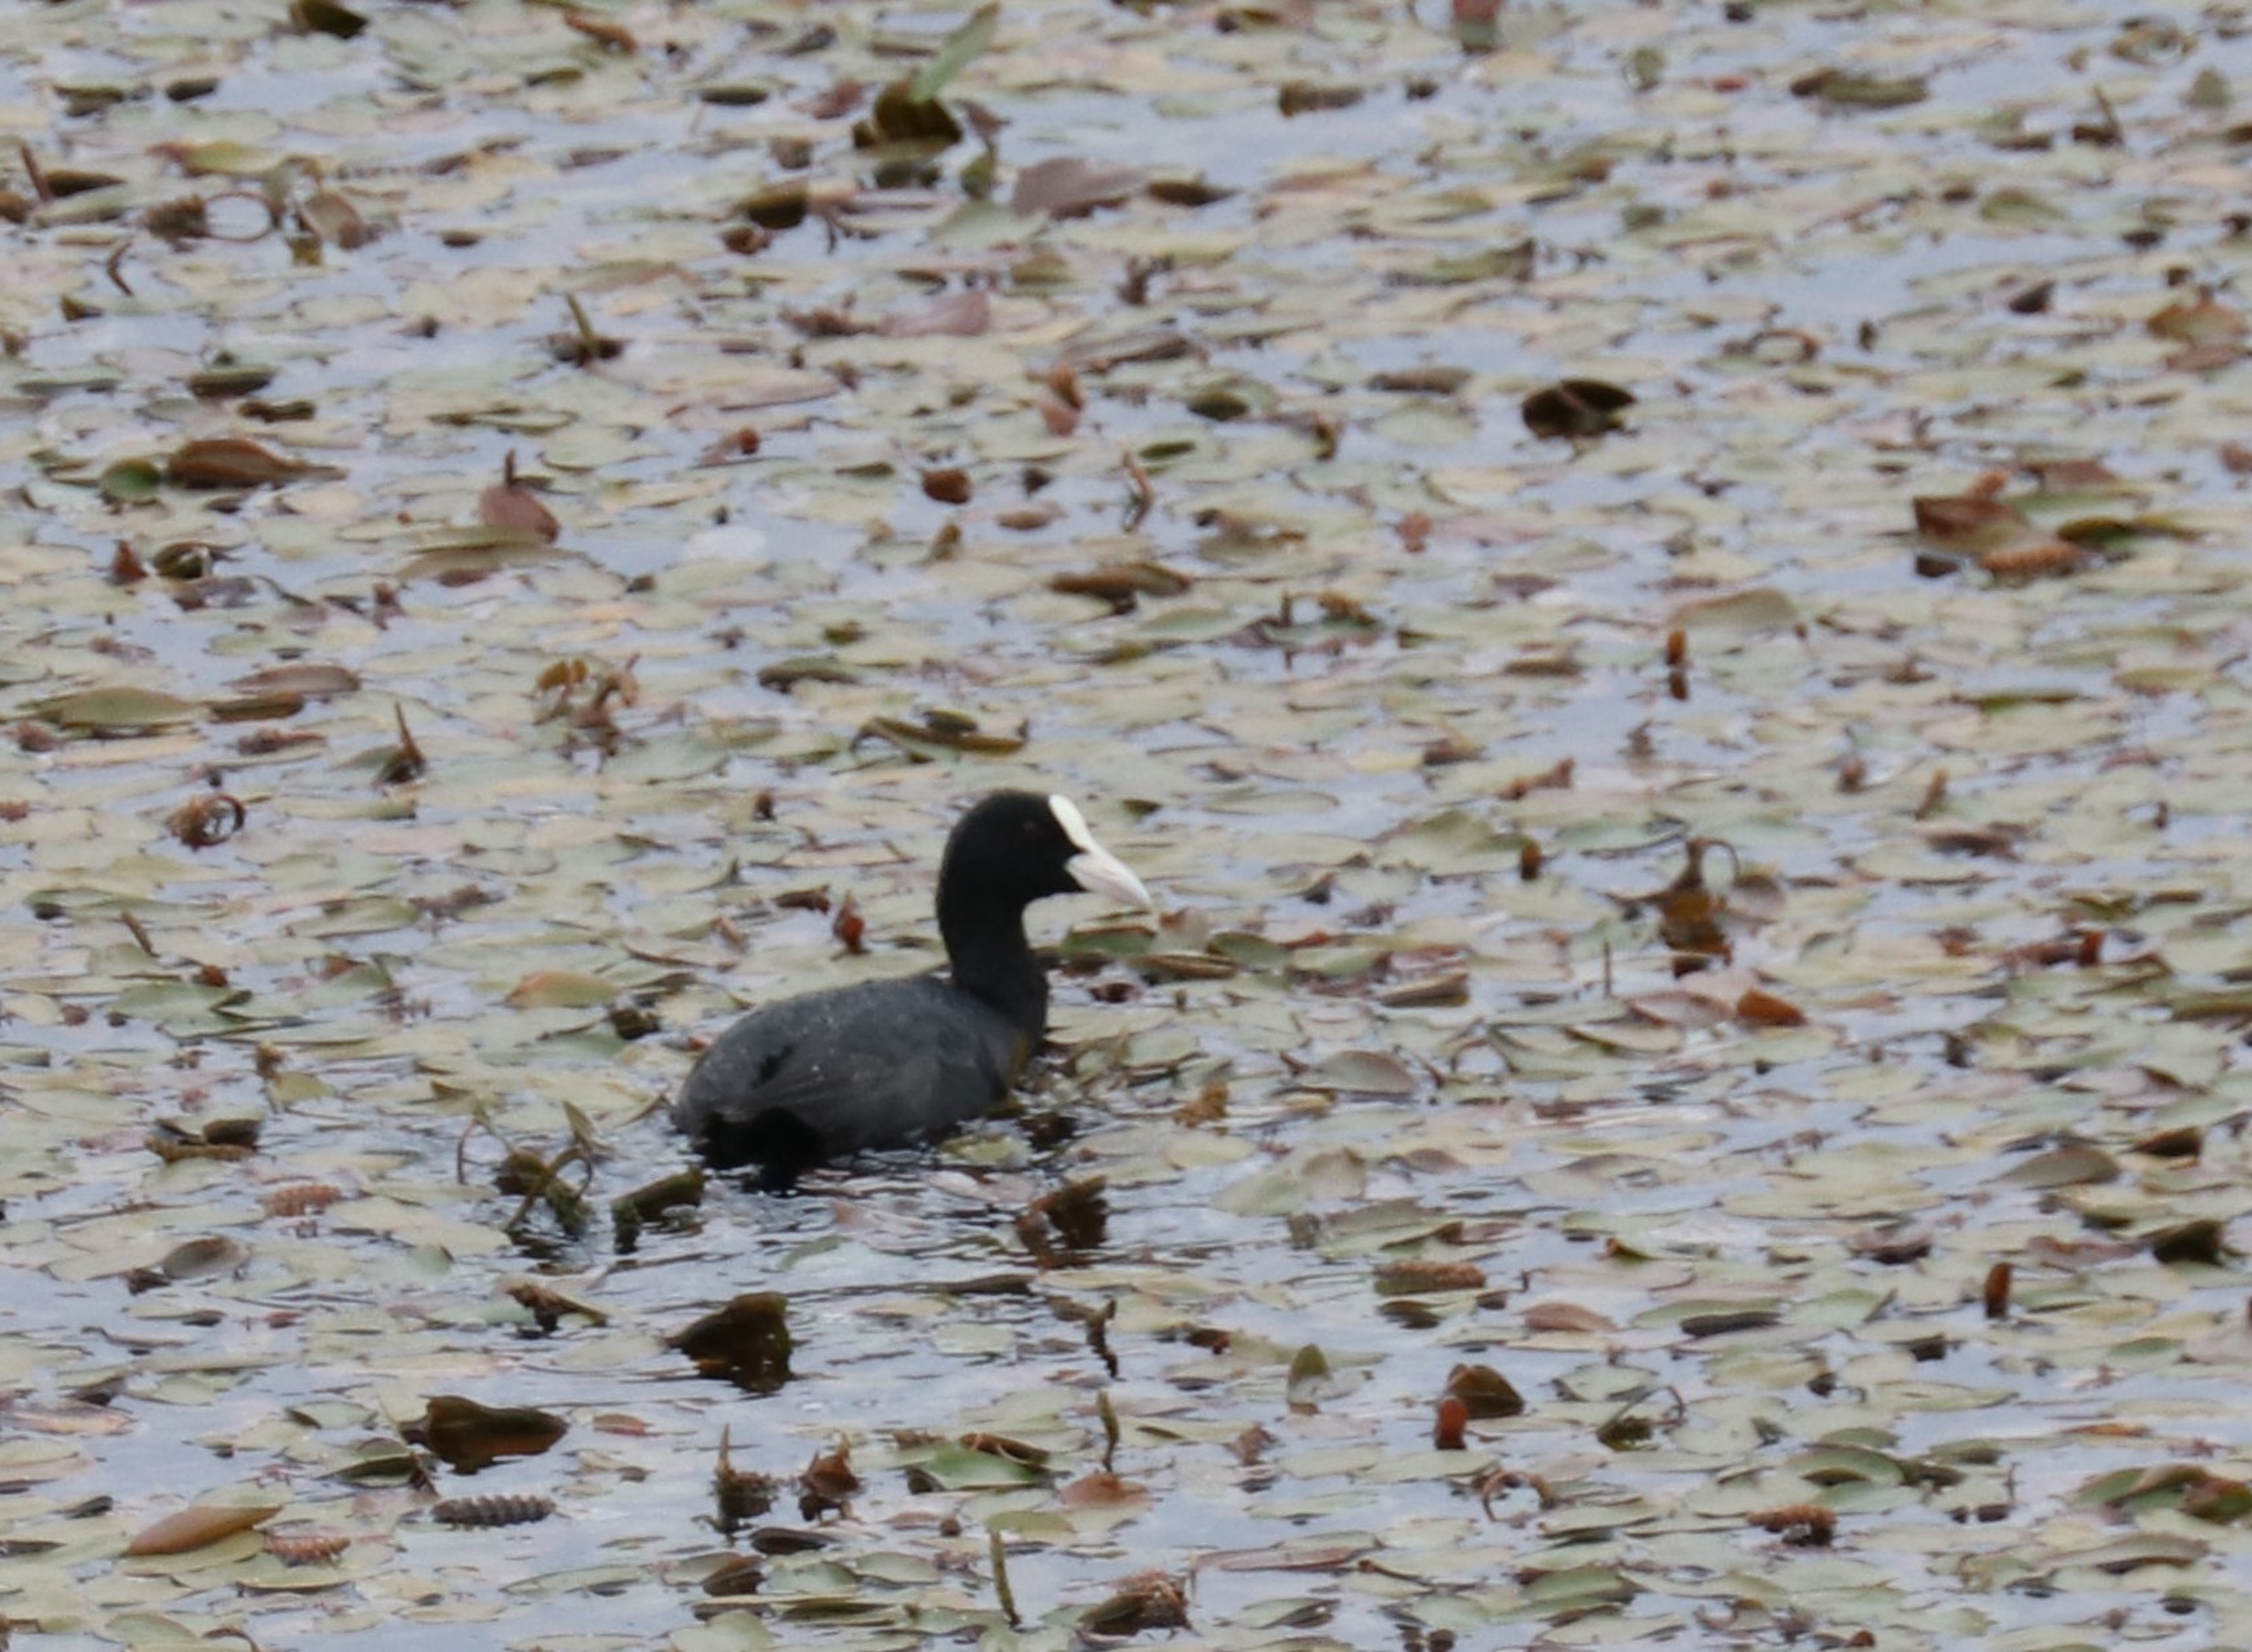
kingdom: Animalia
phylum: Chordata
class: Aves
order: Gruiformes
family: Rallidae
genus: Fulica
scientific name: Fulica atra
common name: Blishøne
